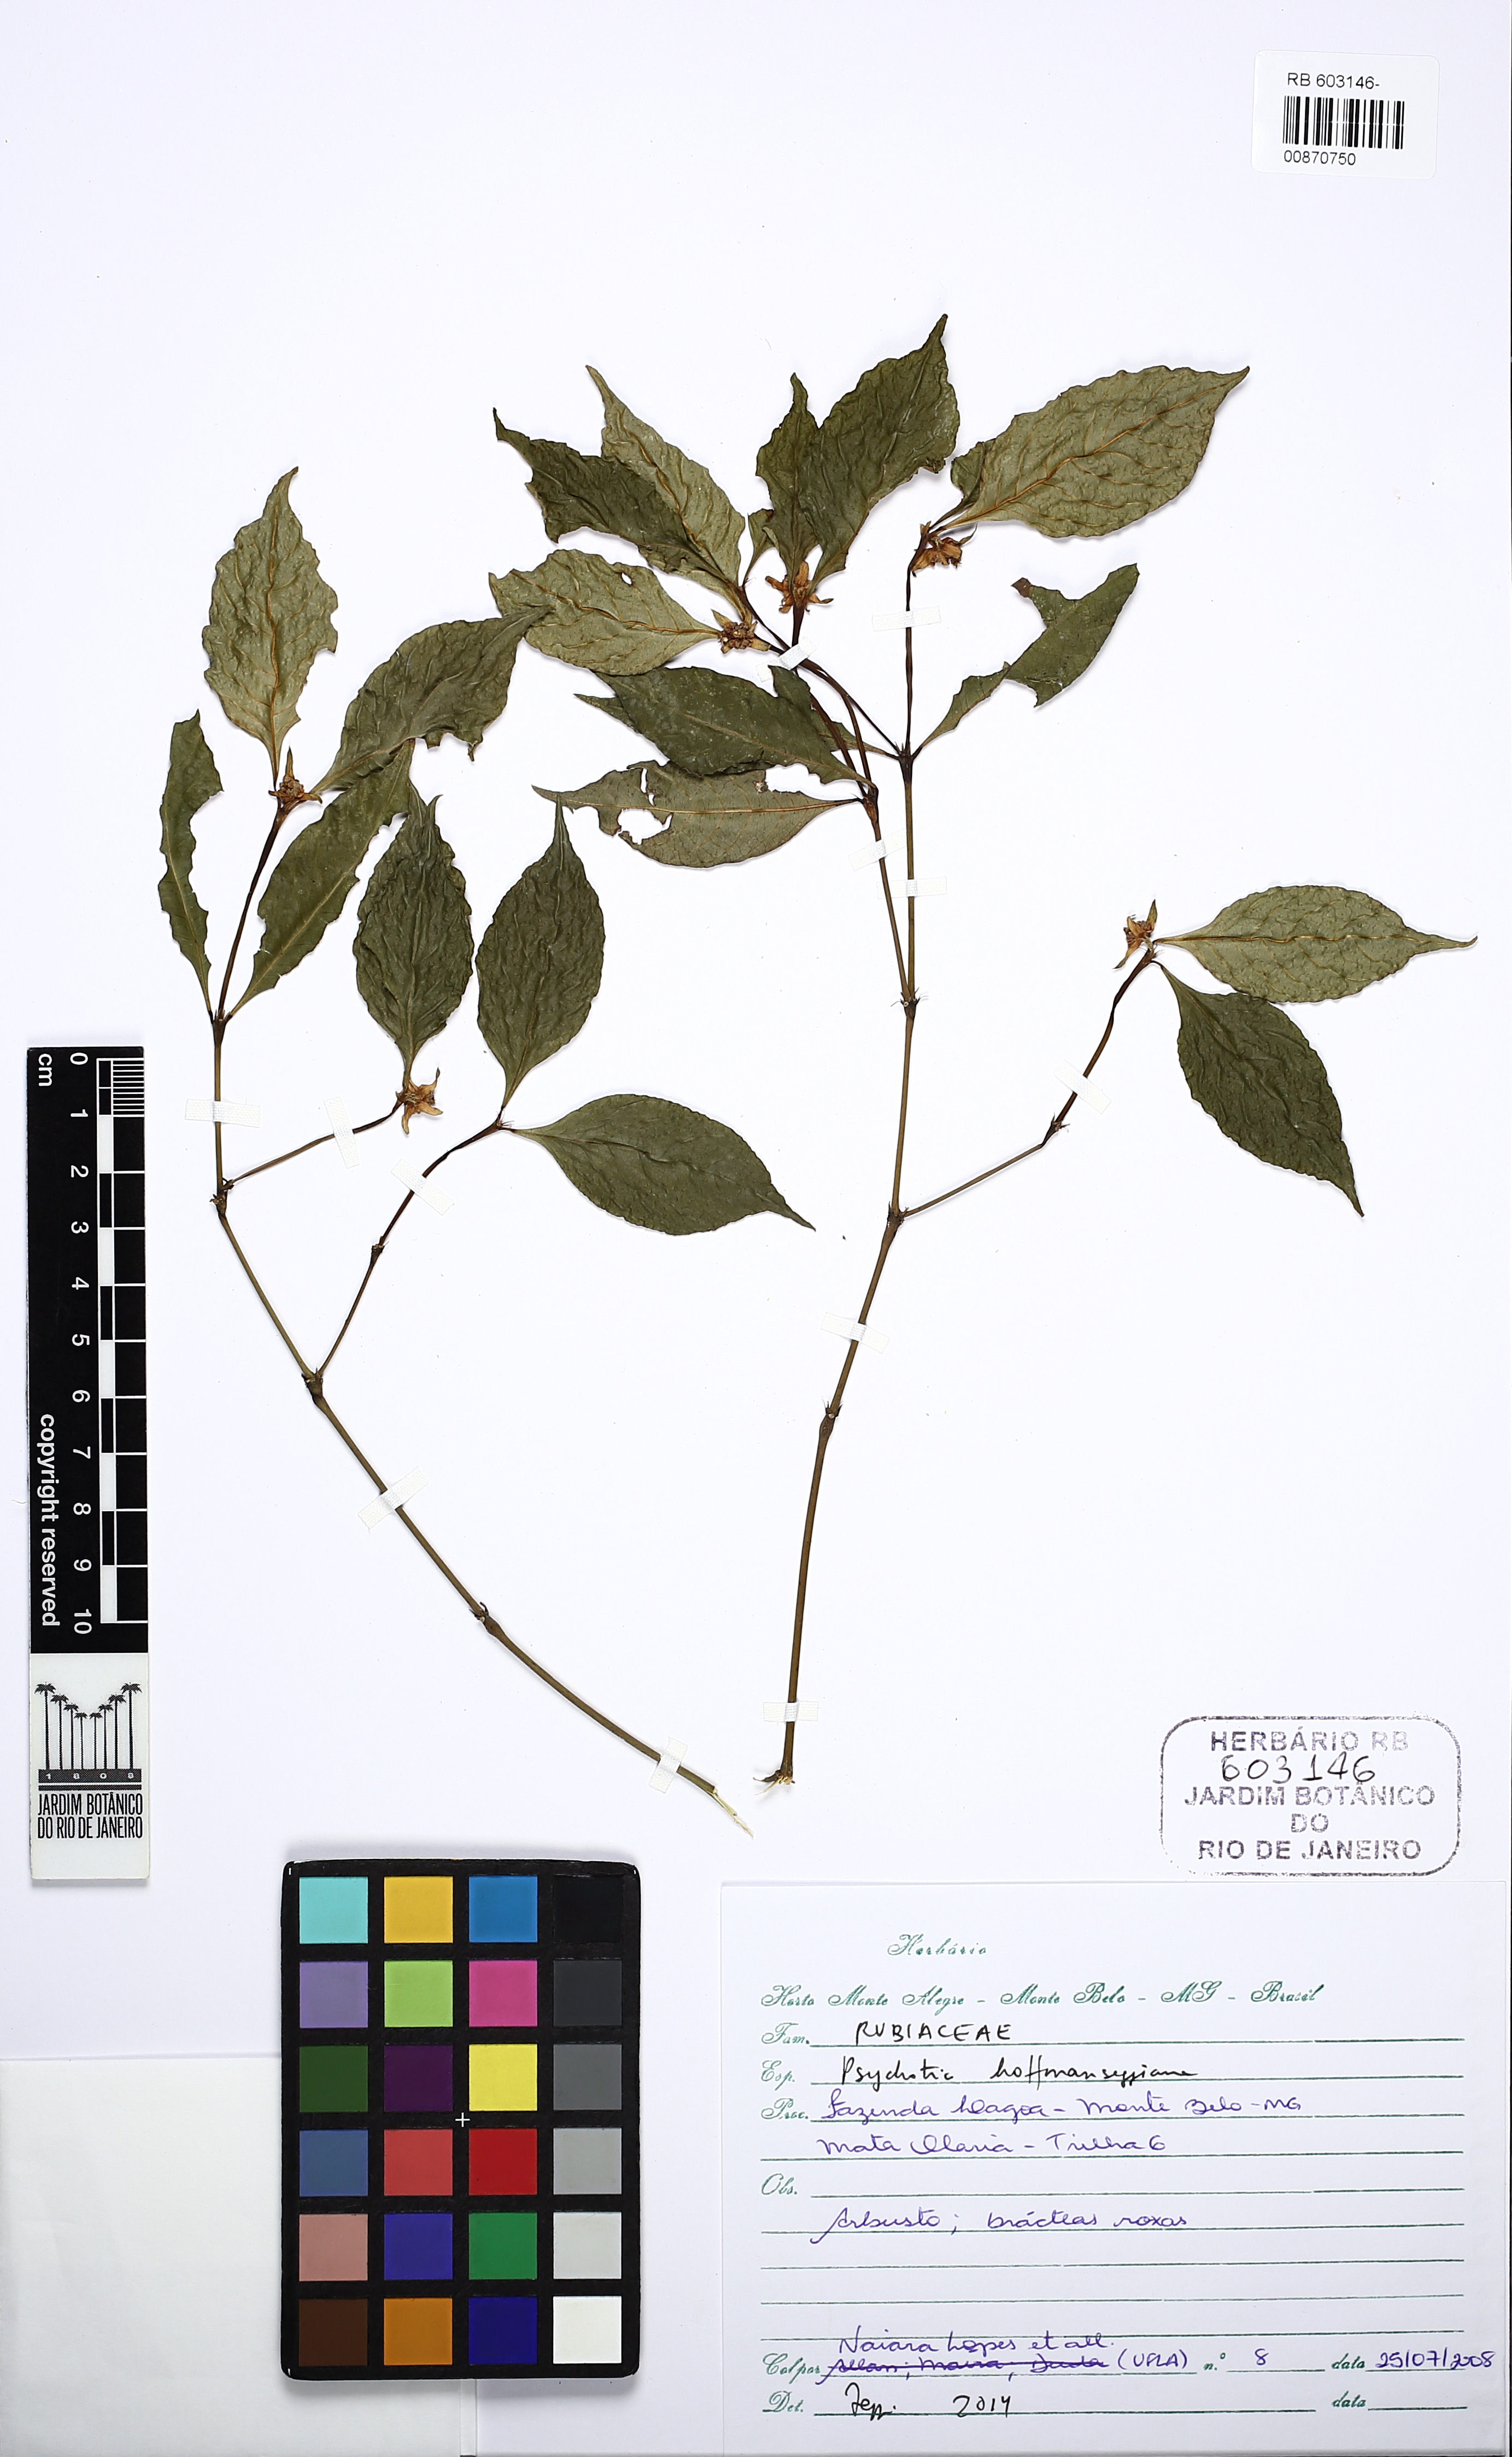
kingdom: Plantae
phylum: Tracheophyta
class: Magnoliopsida
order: Gentianales
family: Rubiaceae
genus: Palicourea
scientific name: Palicourea hoffmannseggiana
